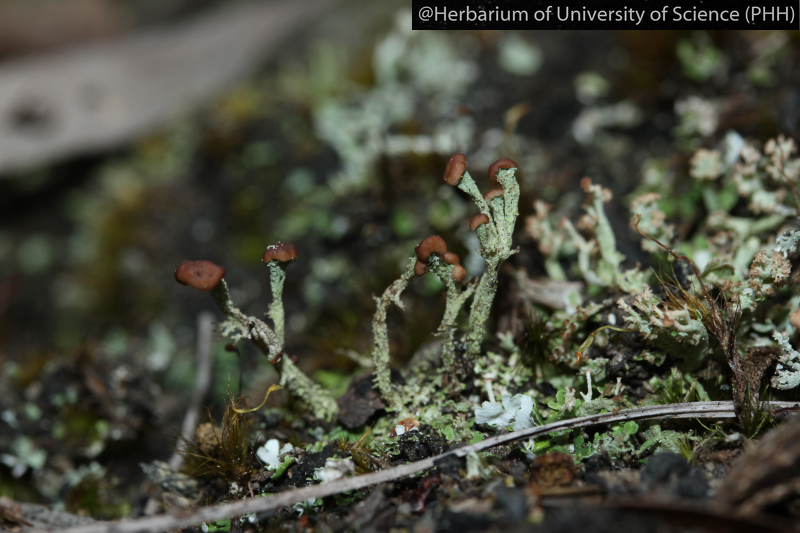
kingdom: Fungi
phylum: Ascomycota
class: Lecanoromycetes
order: Lecanorales
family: Cladoniaceae
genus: Cladonia
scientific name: Cladonia
